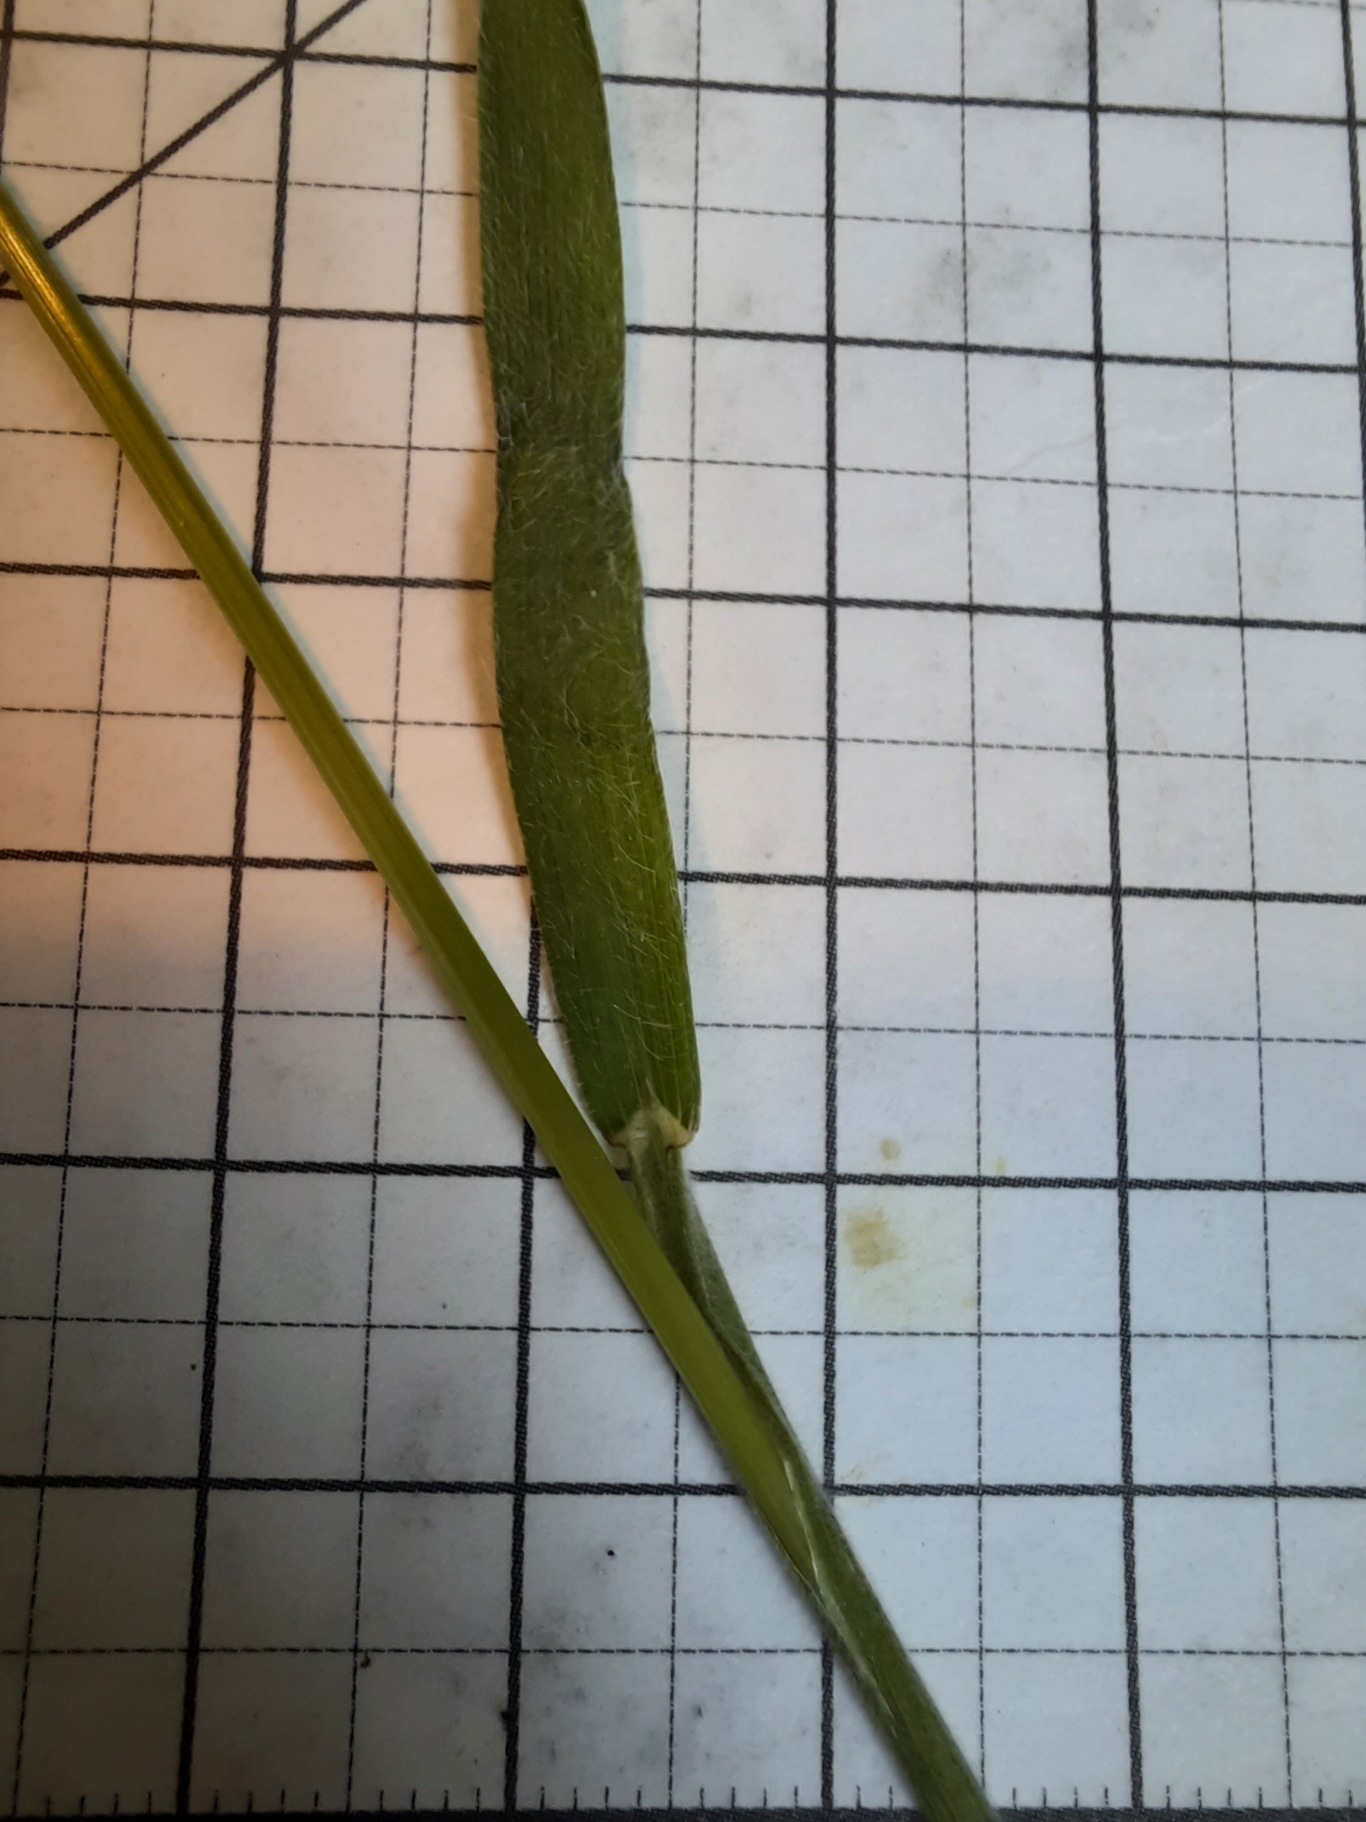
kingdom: Plantae
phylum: Tracheophyta
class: Liliopsida
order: Poales
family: Poaceae
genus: Bromus
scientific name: Bromus hordeaceus
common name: Blød hejre
